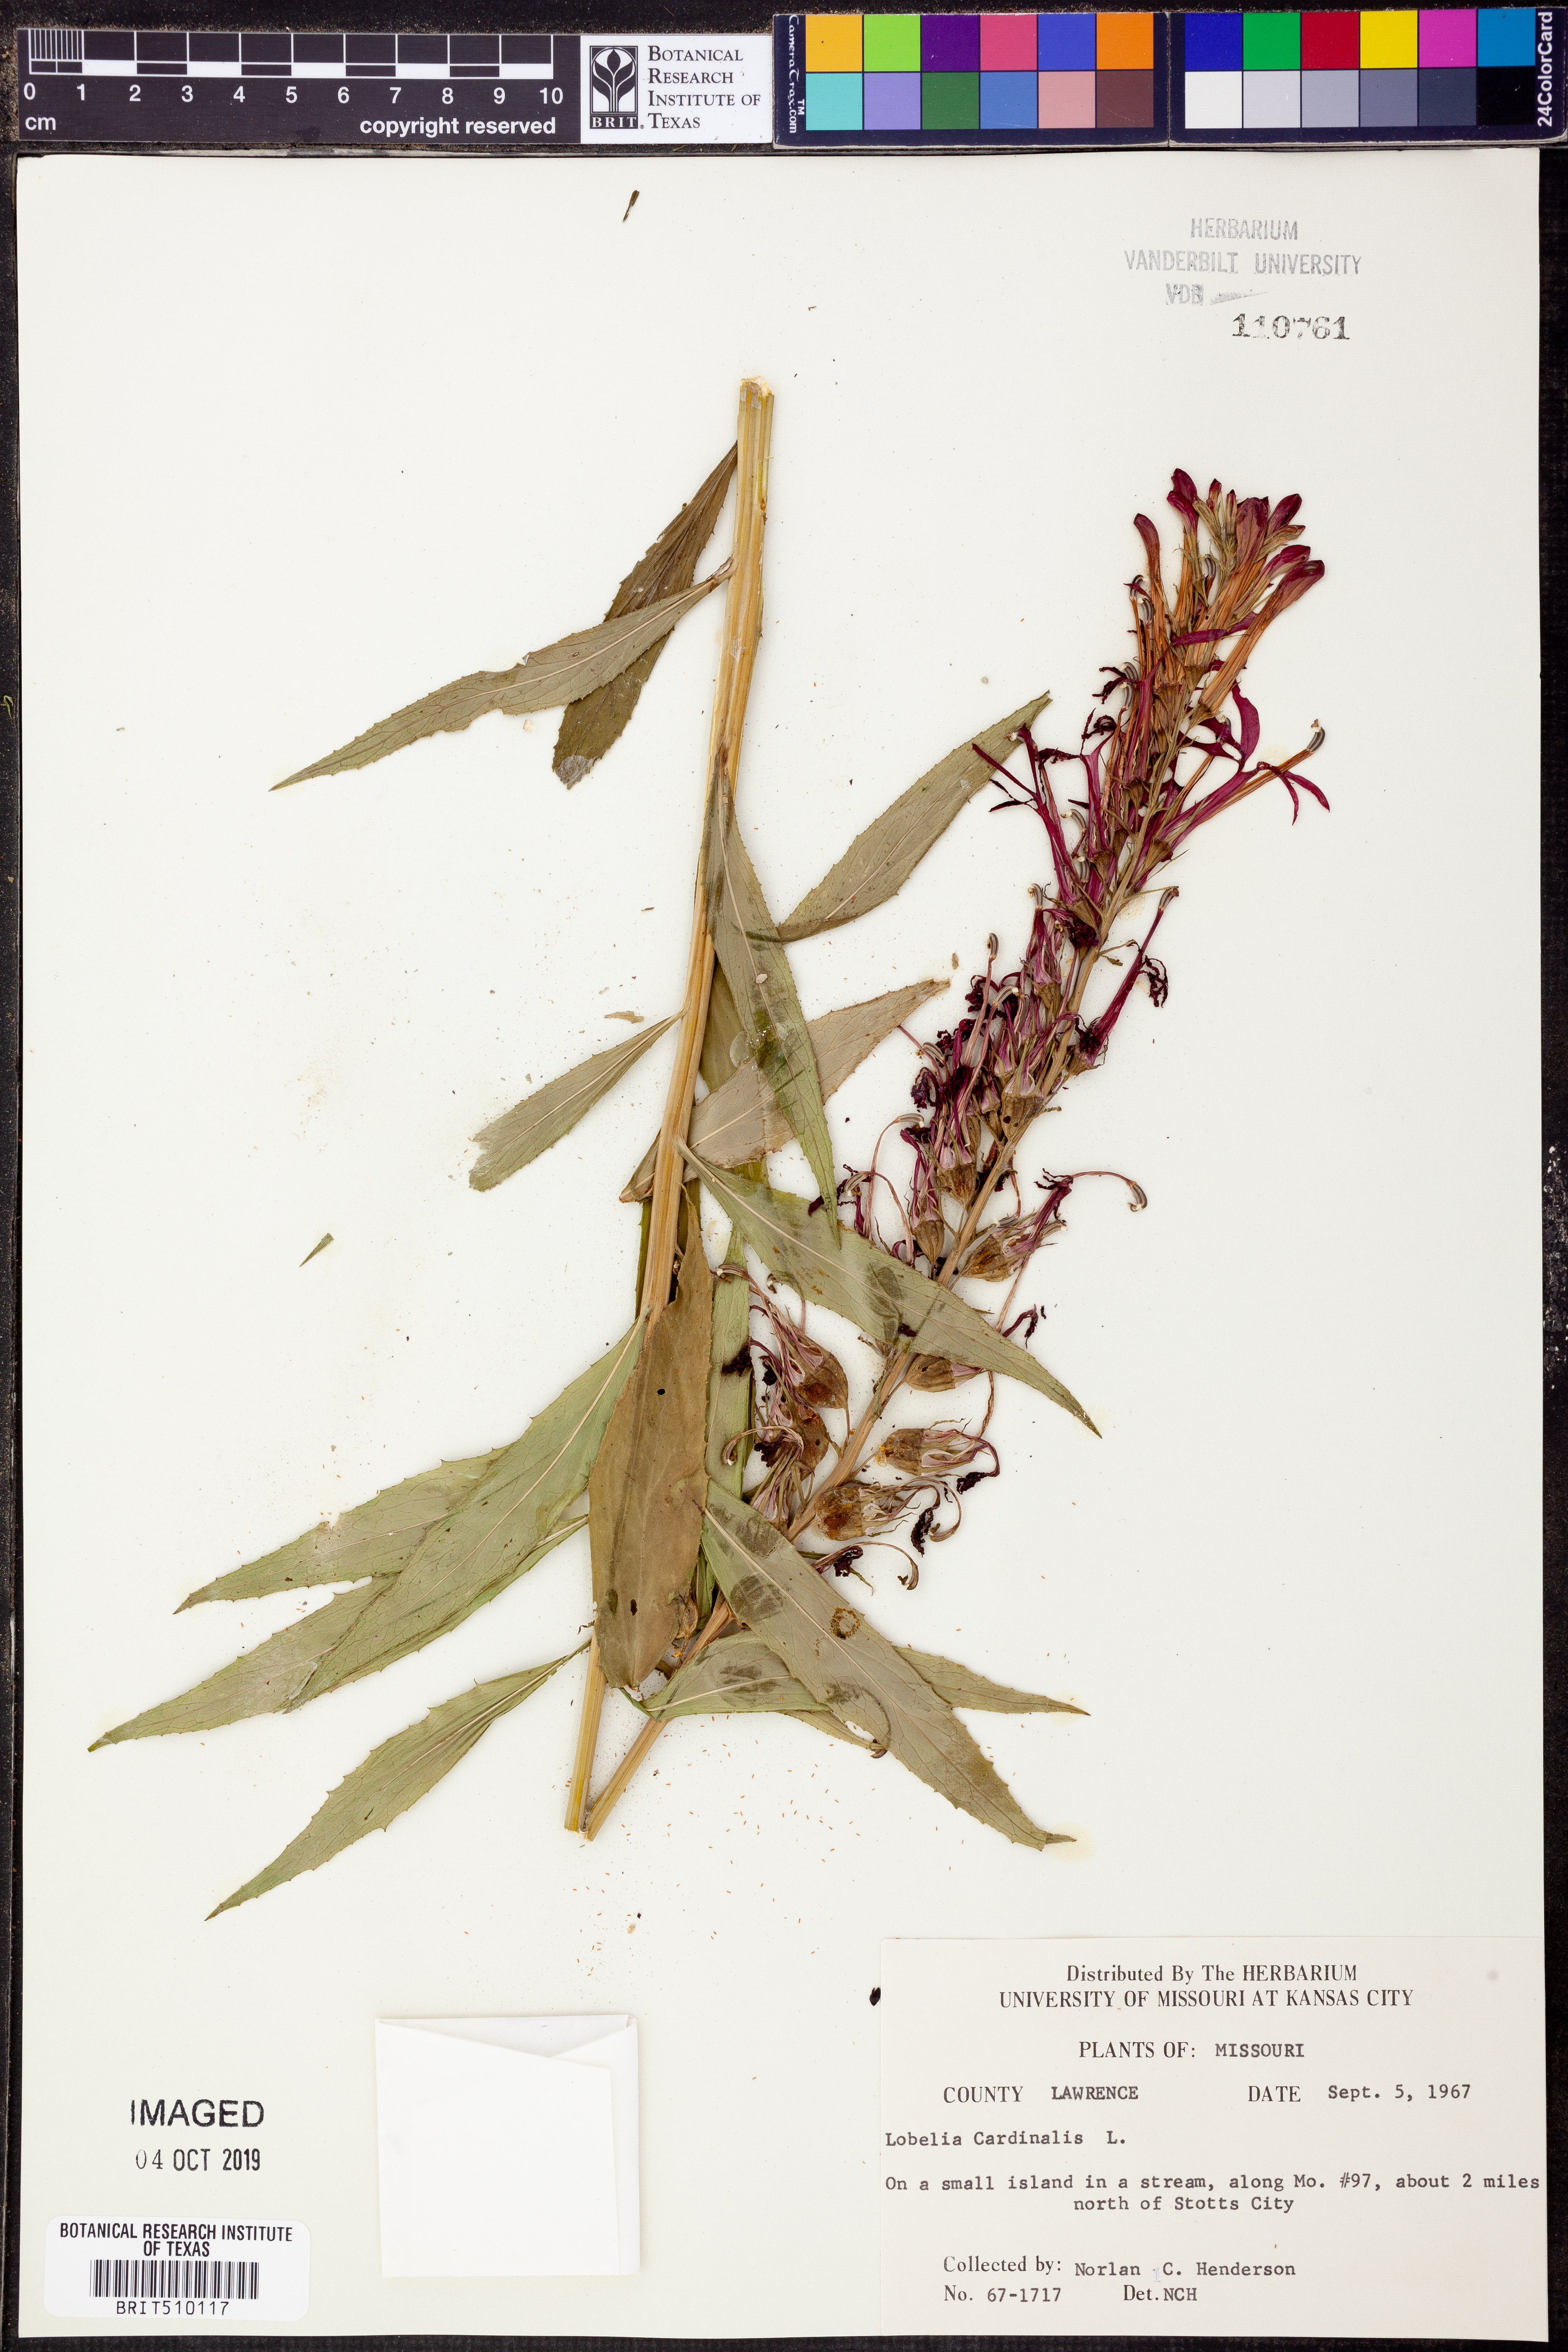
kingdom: Plantae
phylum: Tracheophyta
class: Magnoliopsida
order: Asterales
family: Campanulaceae
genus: Lobelia
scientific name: Lobelia cardinalis
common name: Cardinal flower
